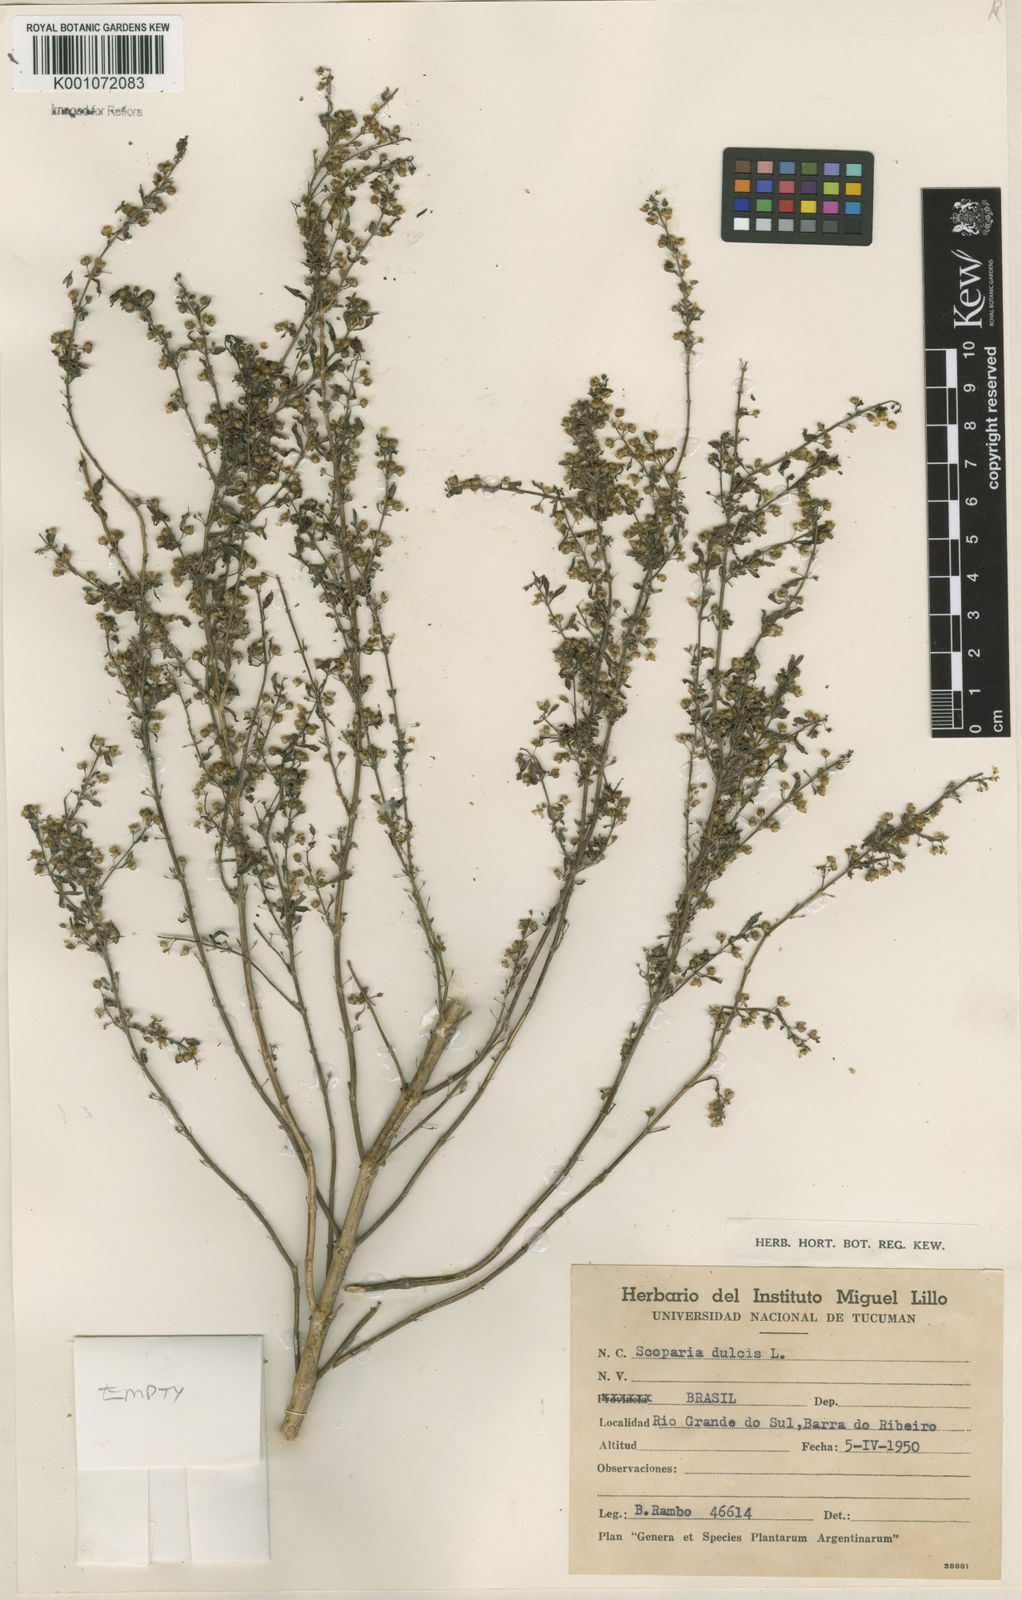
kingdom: Plantae
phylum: Tracheophyta
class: Magnoliopsida
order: Lamiales
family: Plantaginaceae
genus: Scoparia
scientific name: Scoparia dulcis
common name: Scoparia-weed
